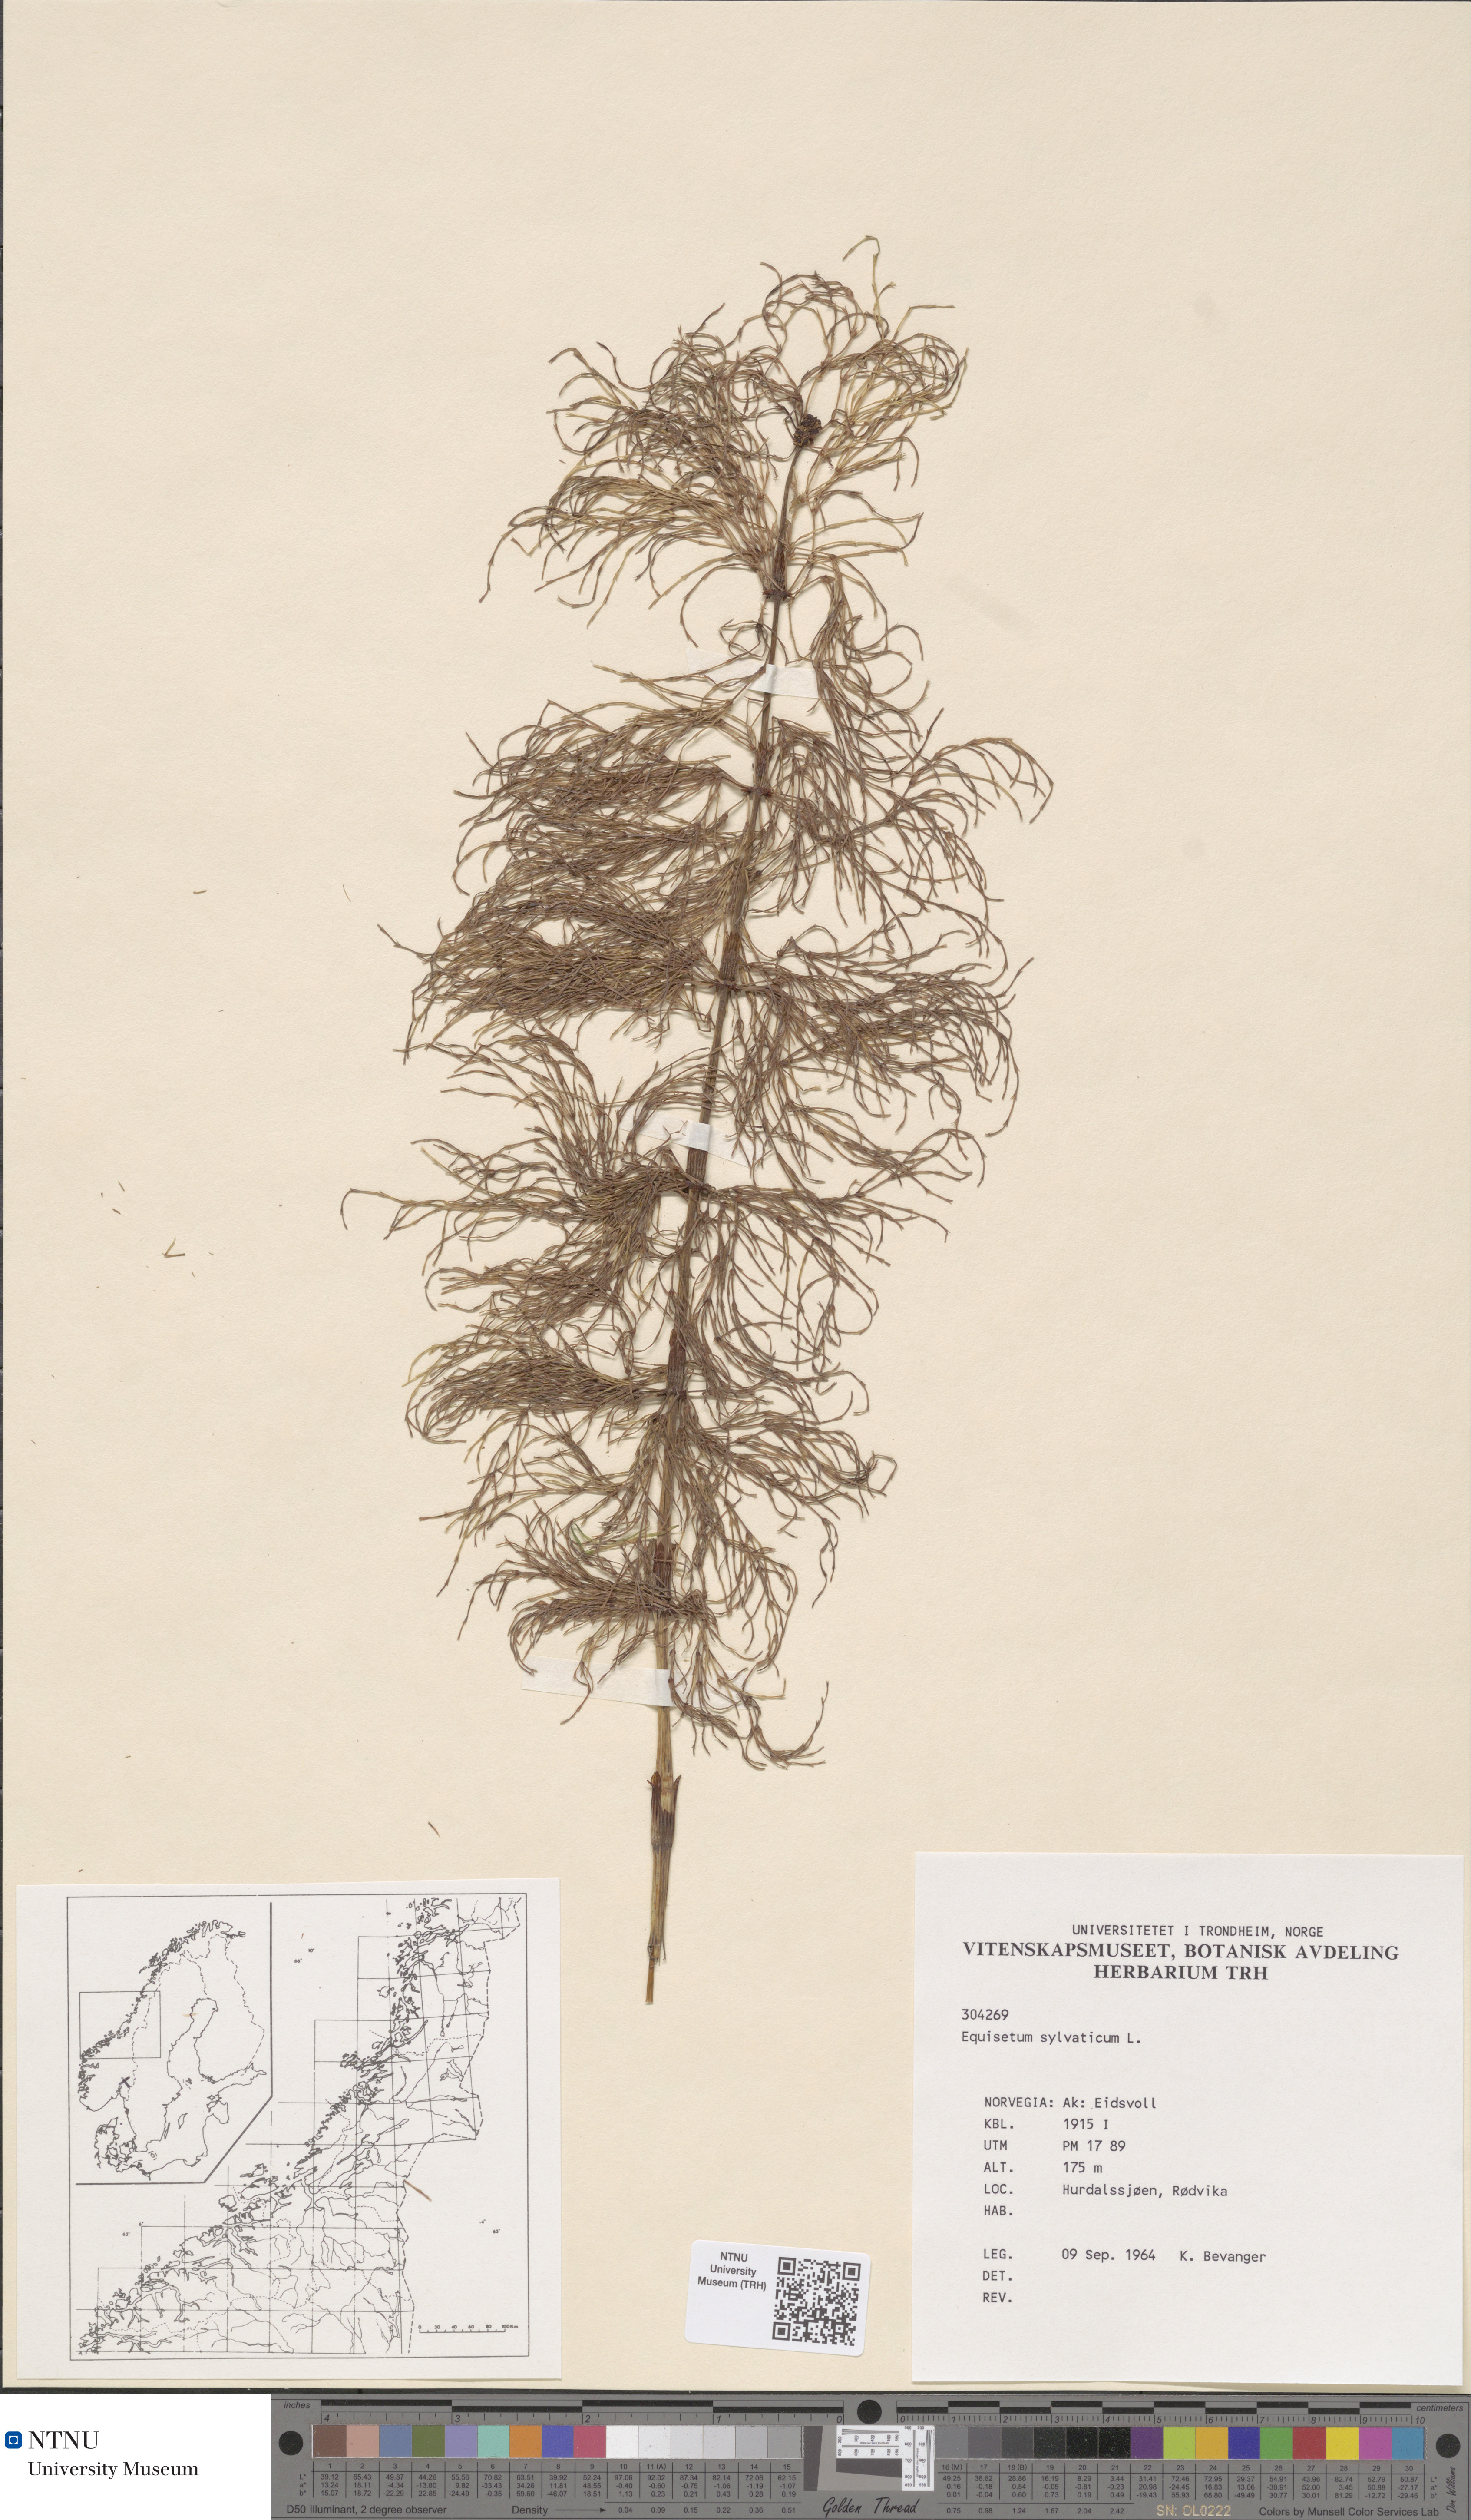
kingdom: Plantae
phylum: Tracheophyta
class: Polypodiopsida
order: Equisetales
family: Equisetaceae
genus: Equisetum
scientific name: Equisetum sylvaticum
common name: Wood horsetail
